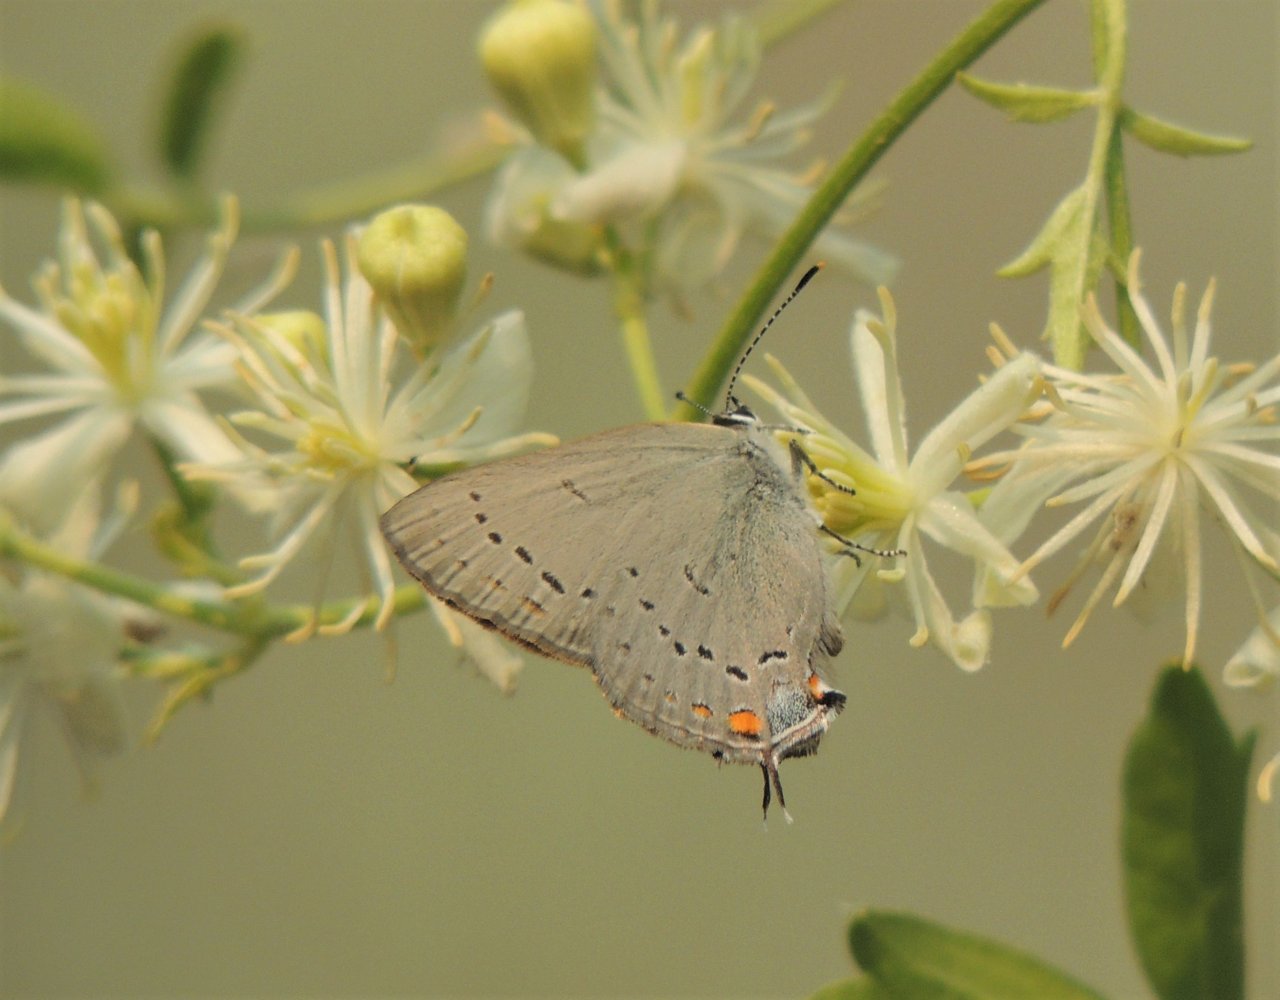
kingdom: Animalia
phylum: Arthropoda
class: Insecta
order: Lepidoptera
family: Lycaenidae
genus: Strymon
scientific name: Strymon sylvinus
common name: Sylvan Hairstreak
